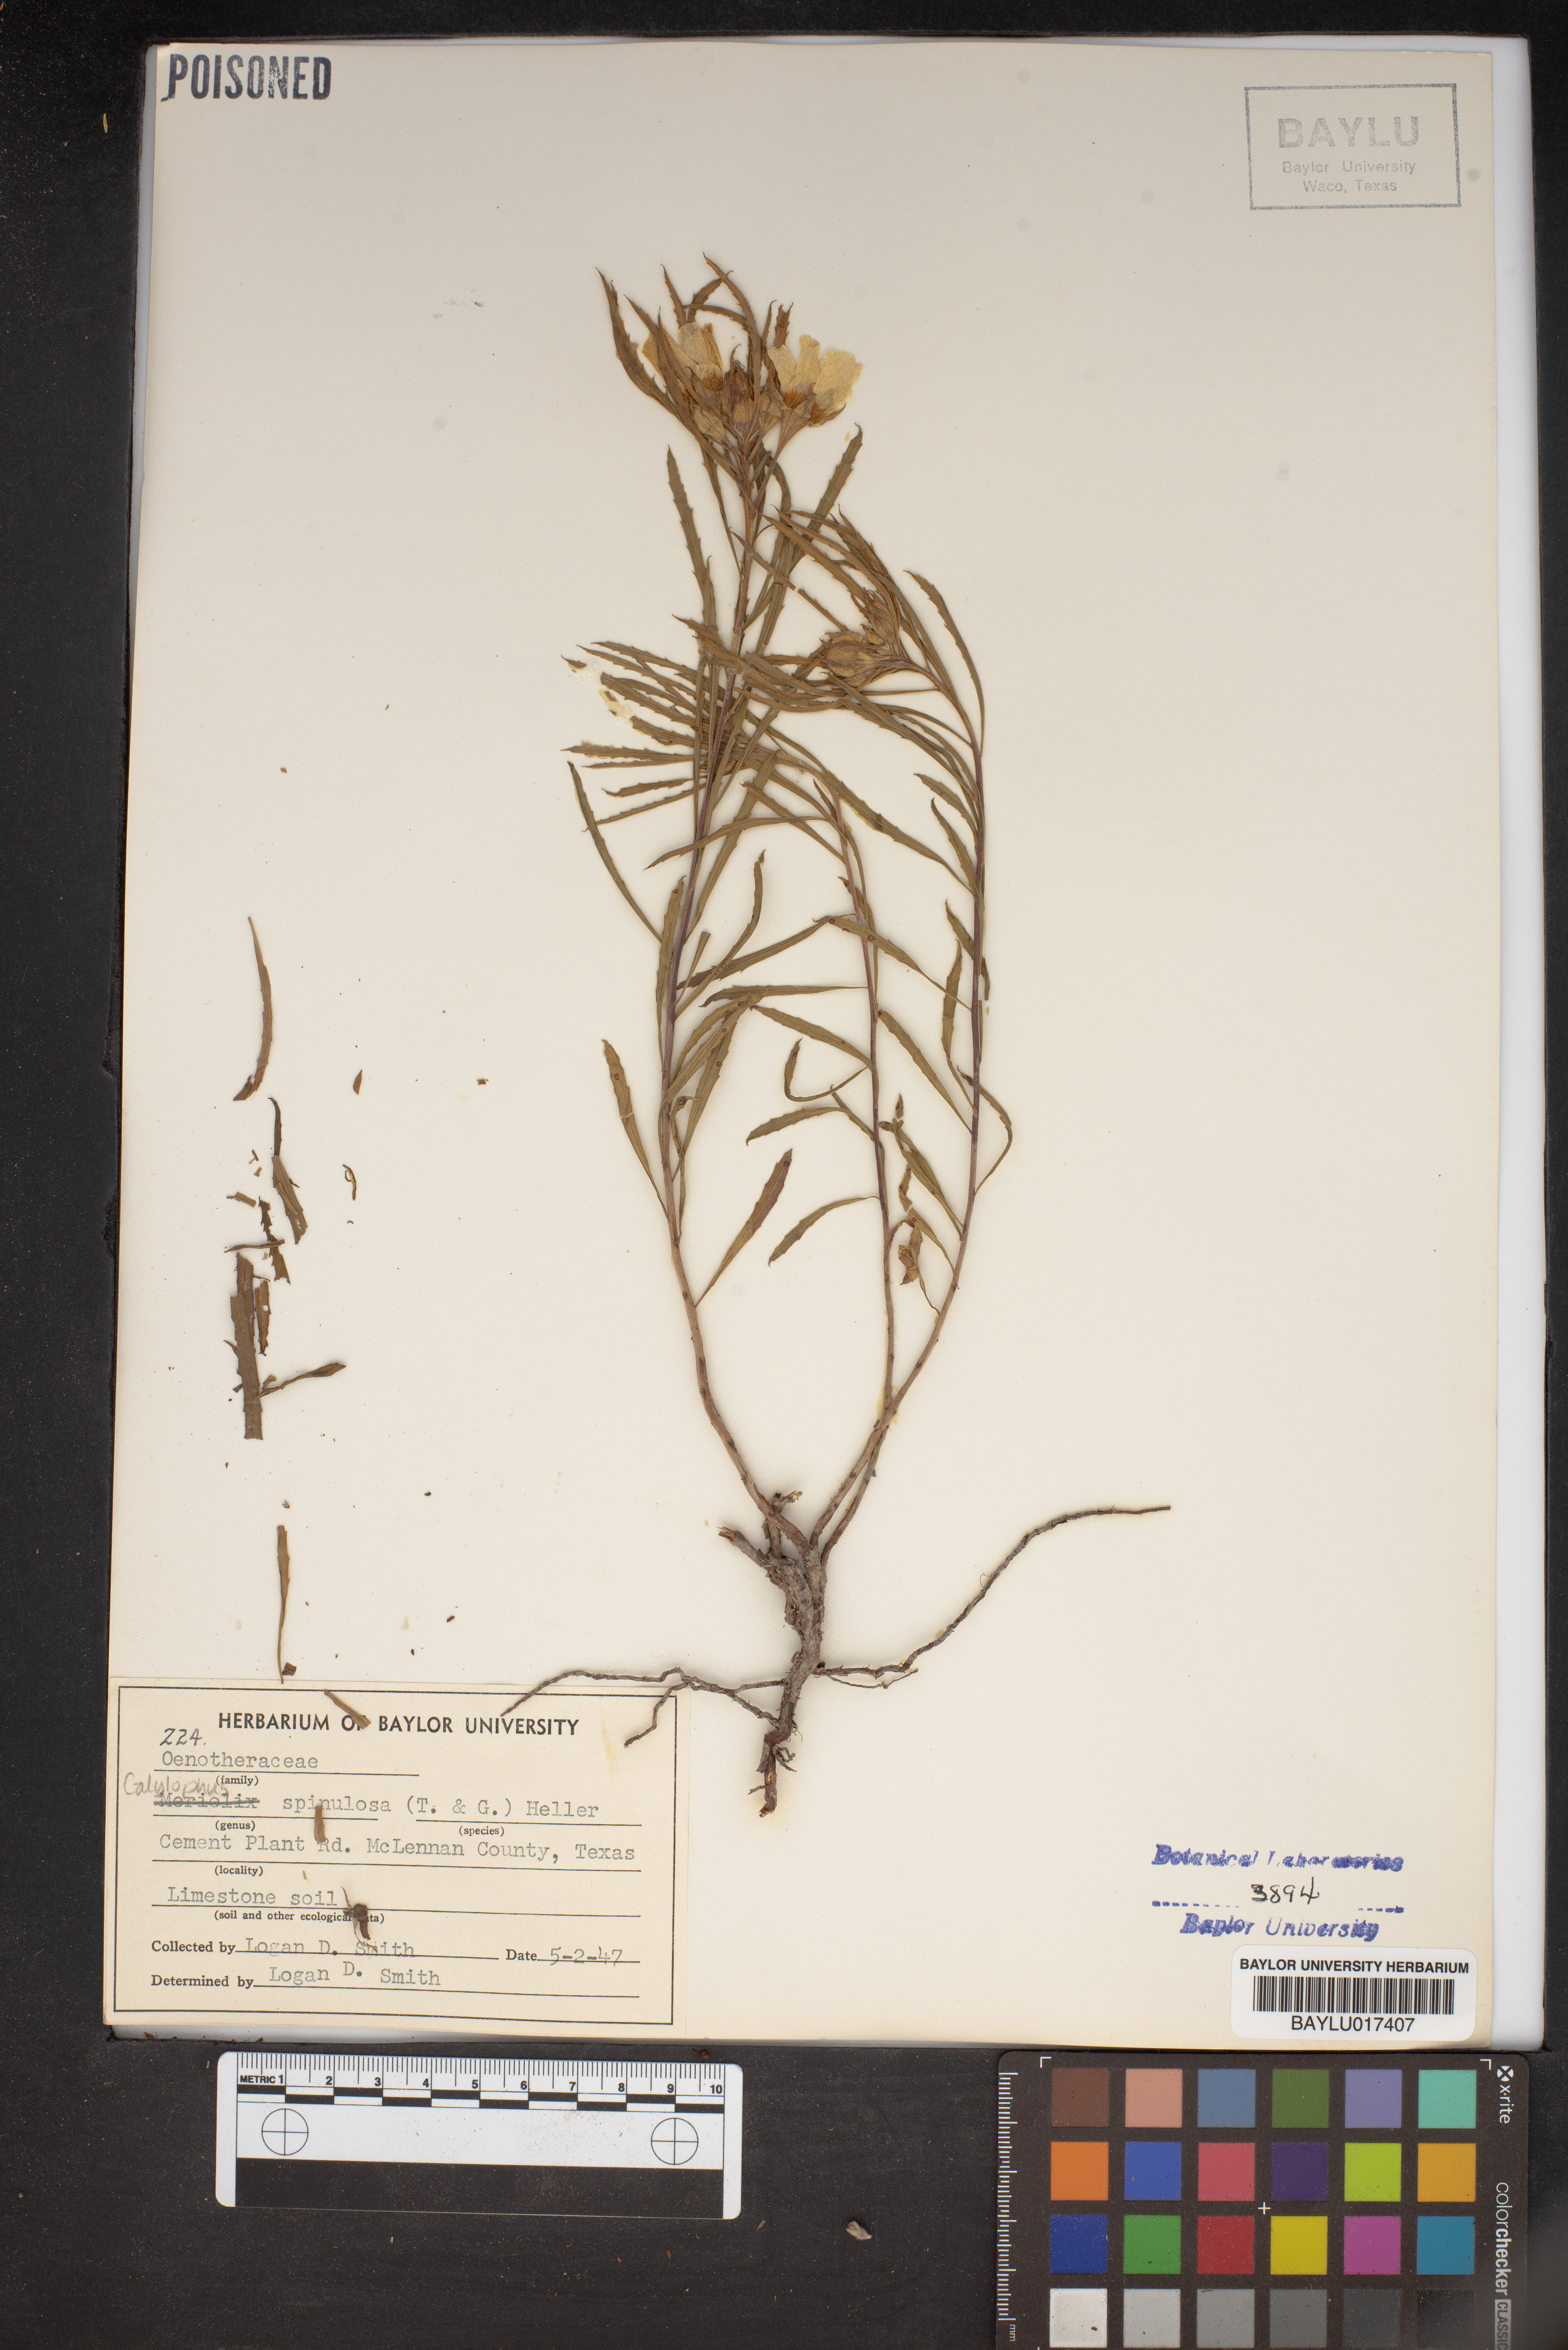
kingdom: Plantae
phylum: Tracheophyta
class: Magnoliopsida
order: Myrtales
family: Onagraceae
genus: Oenothera
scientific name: Oenothera
